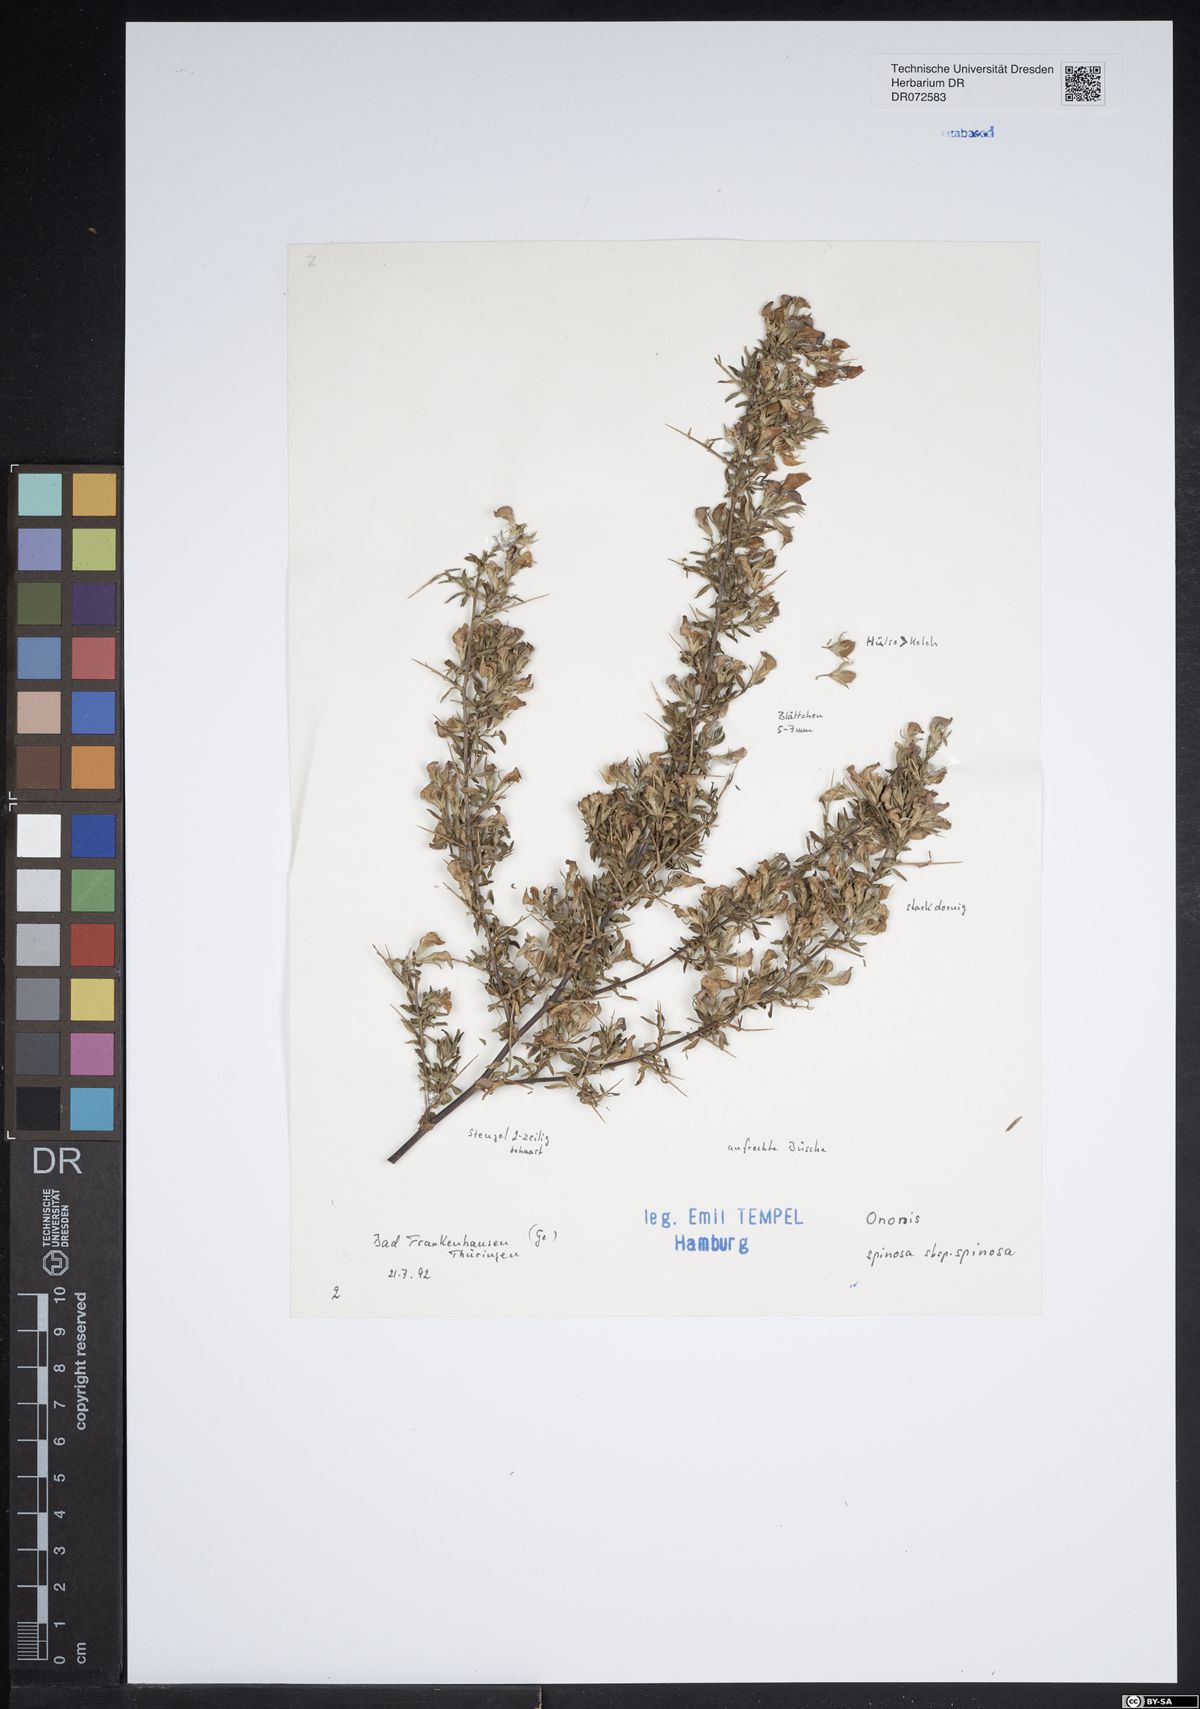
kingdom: Plantae
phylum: Tracheophyta
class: Magnoliopsida
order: Fabales
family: Fabaceae
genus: Ononis
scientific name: Ononis spinosa
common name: Spiny restharrow
